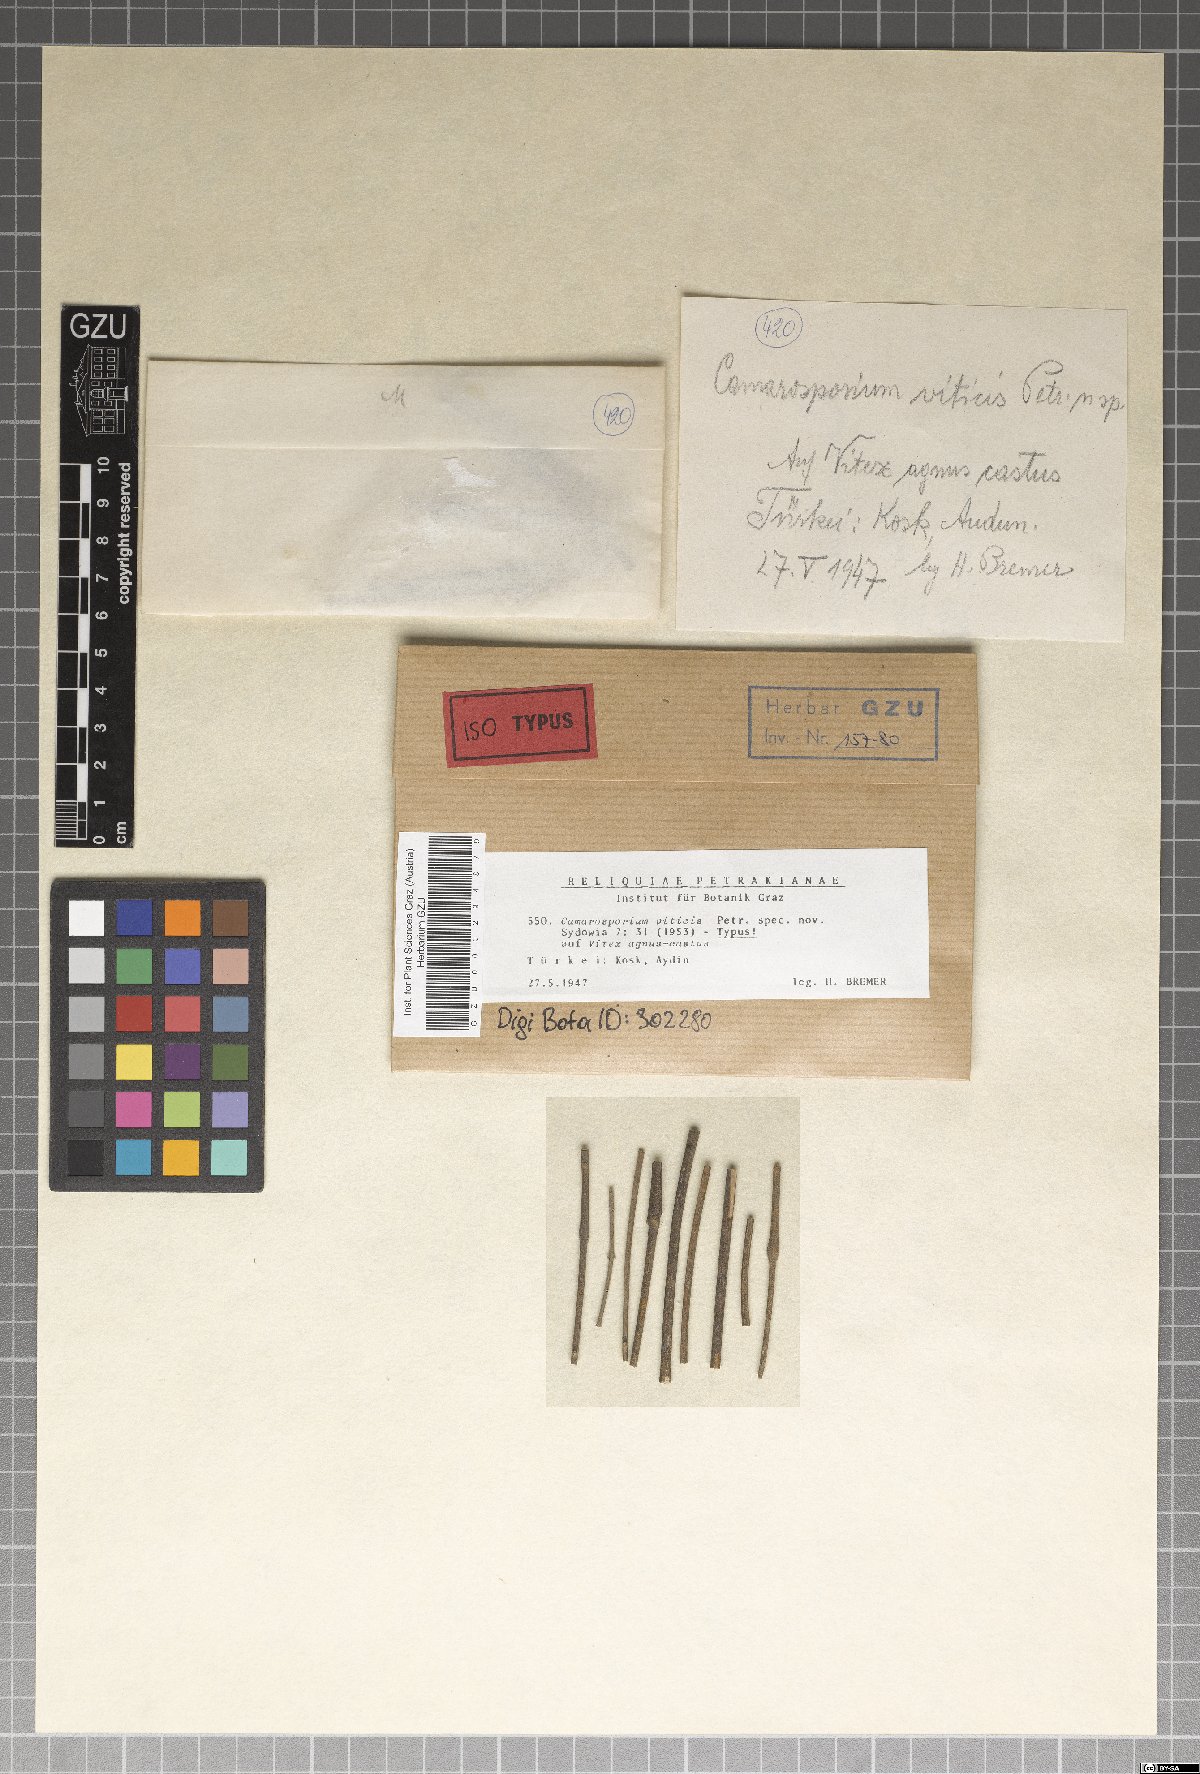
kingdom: Fungi
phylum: Ascomycota
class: Dothideomycetes
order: Pleosporales
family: Camarosporiaceae
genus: Camarosporium
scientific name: Camarosporium viticis
